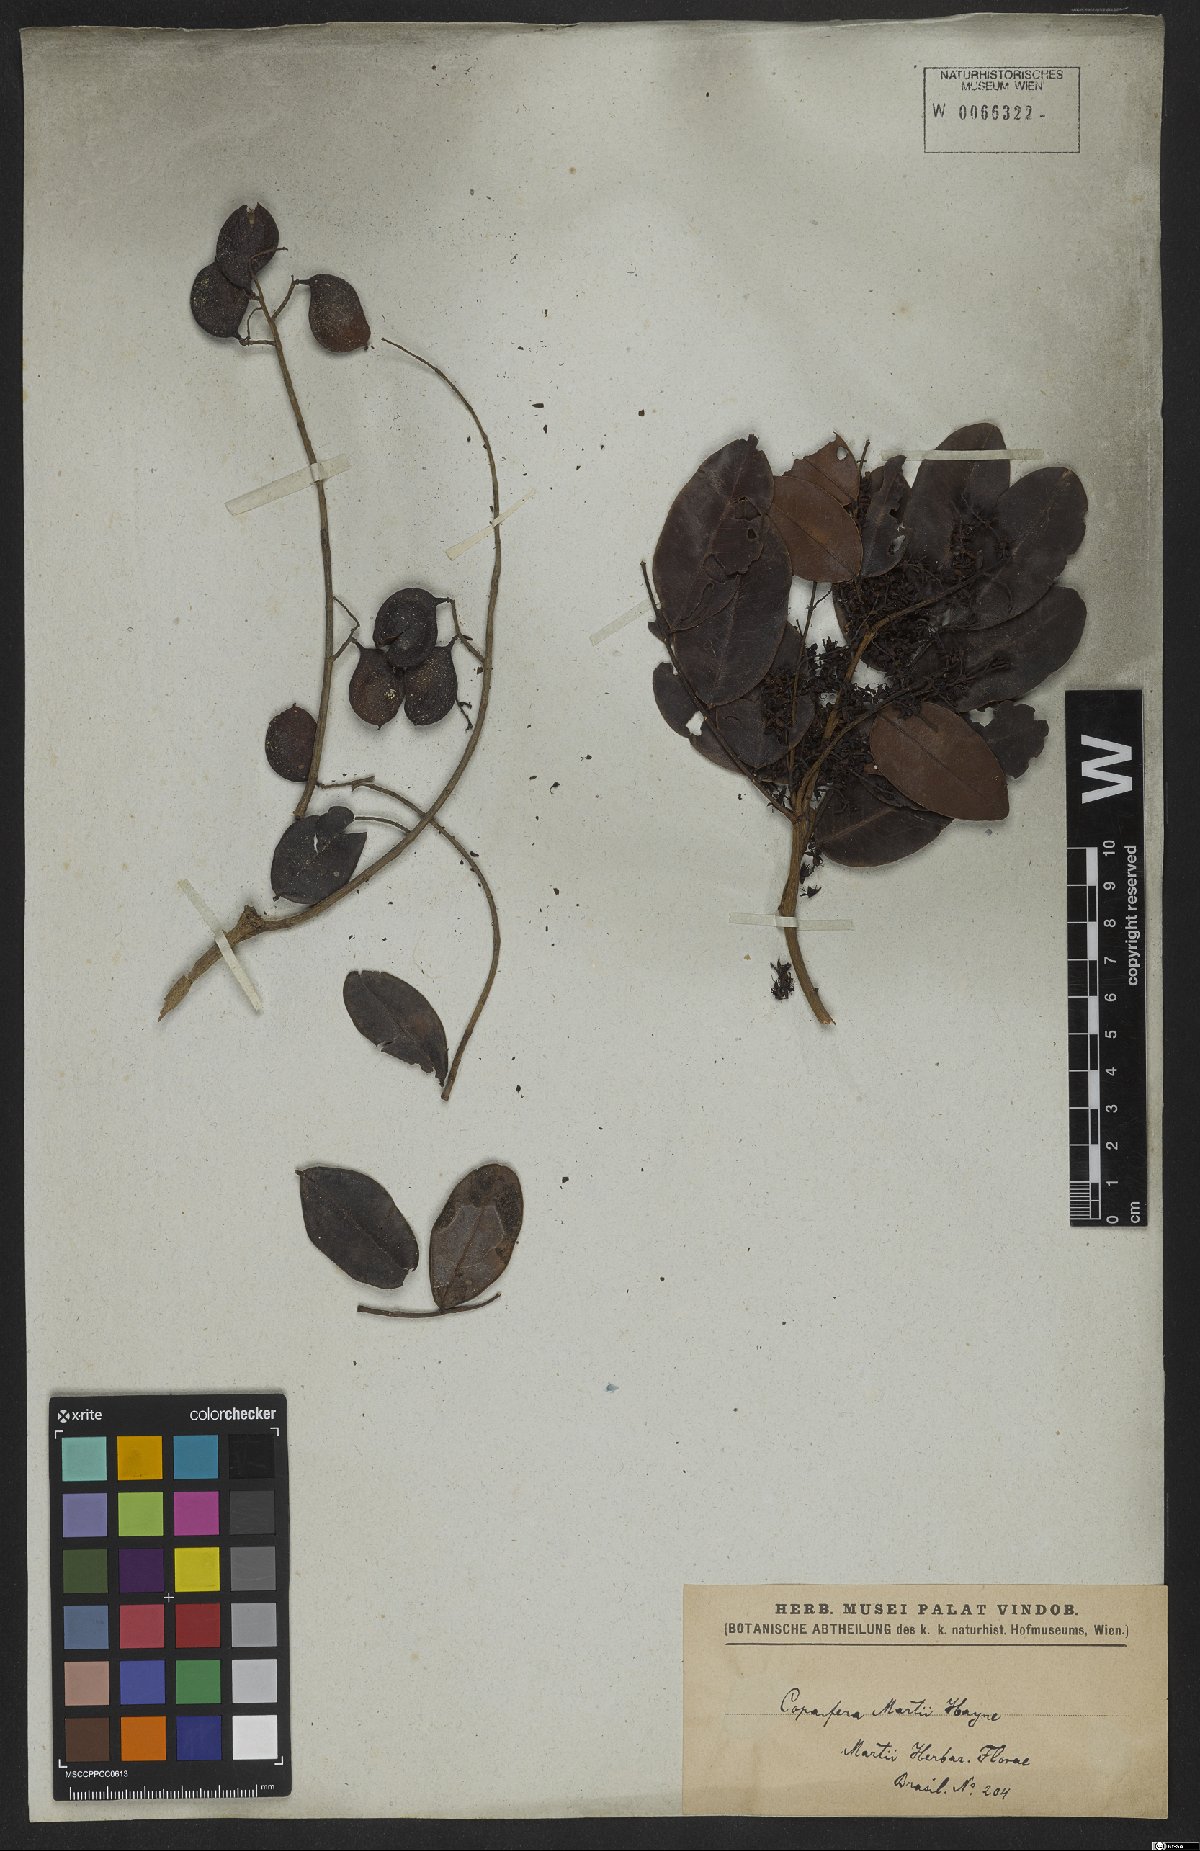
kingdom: Plantae
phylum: Tracheophyta
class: Magnoliopsida
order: Fabales
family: Fabaceae
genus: Copaifera
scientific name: Copaifera martii
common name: Copaiba
